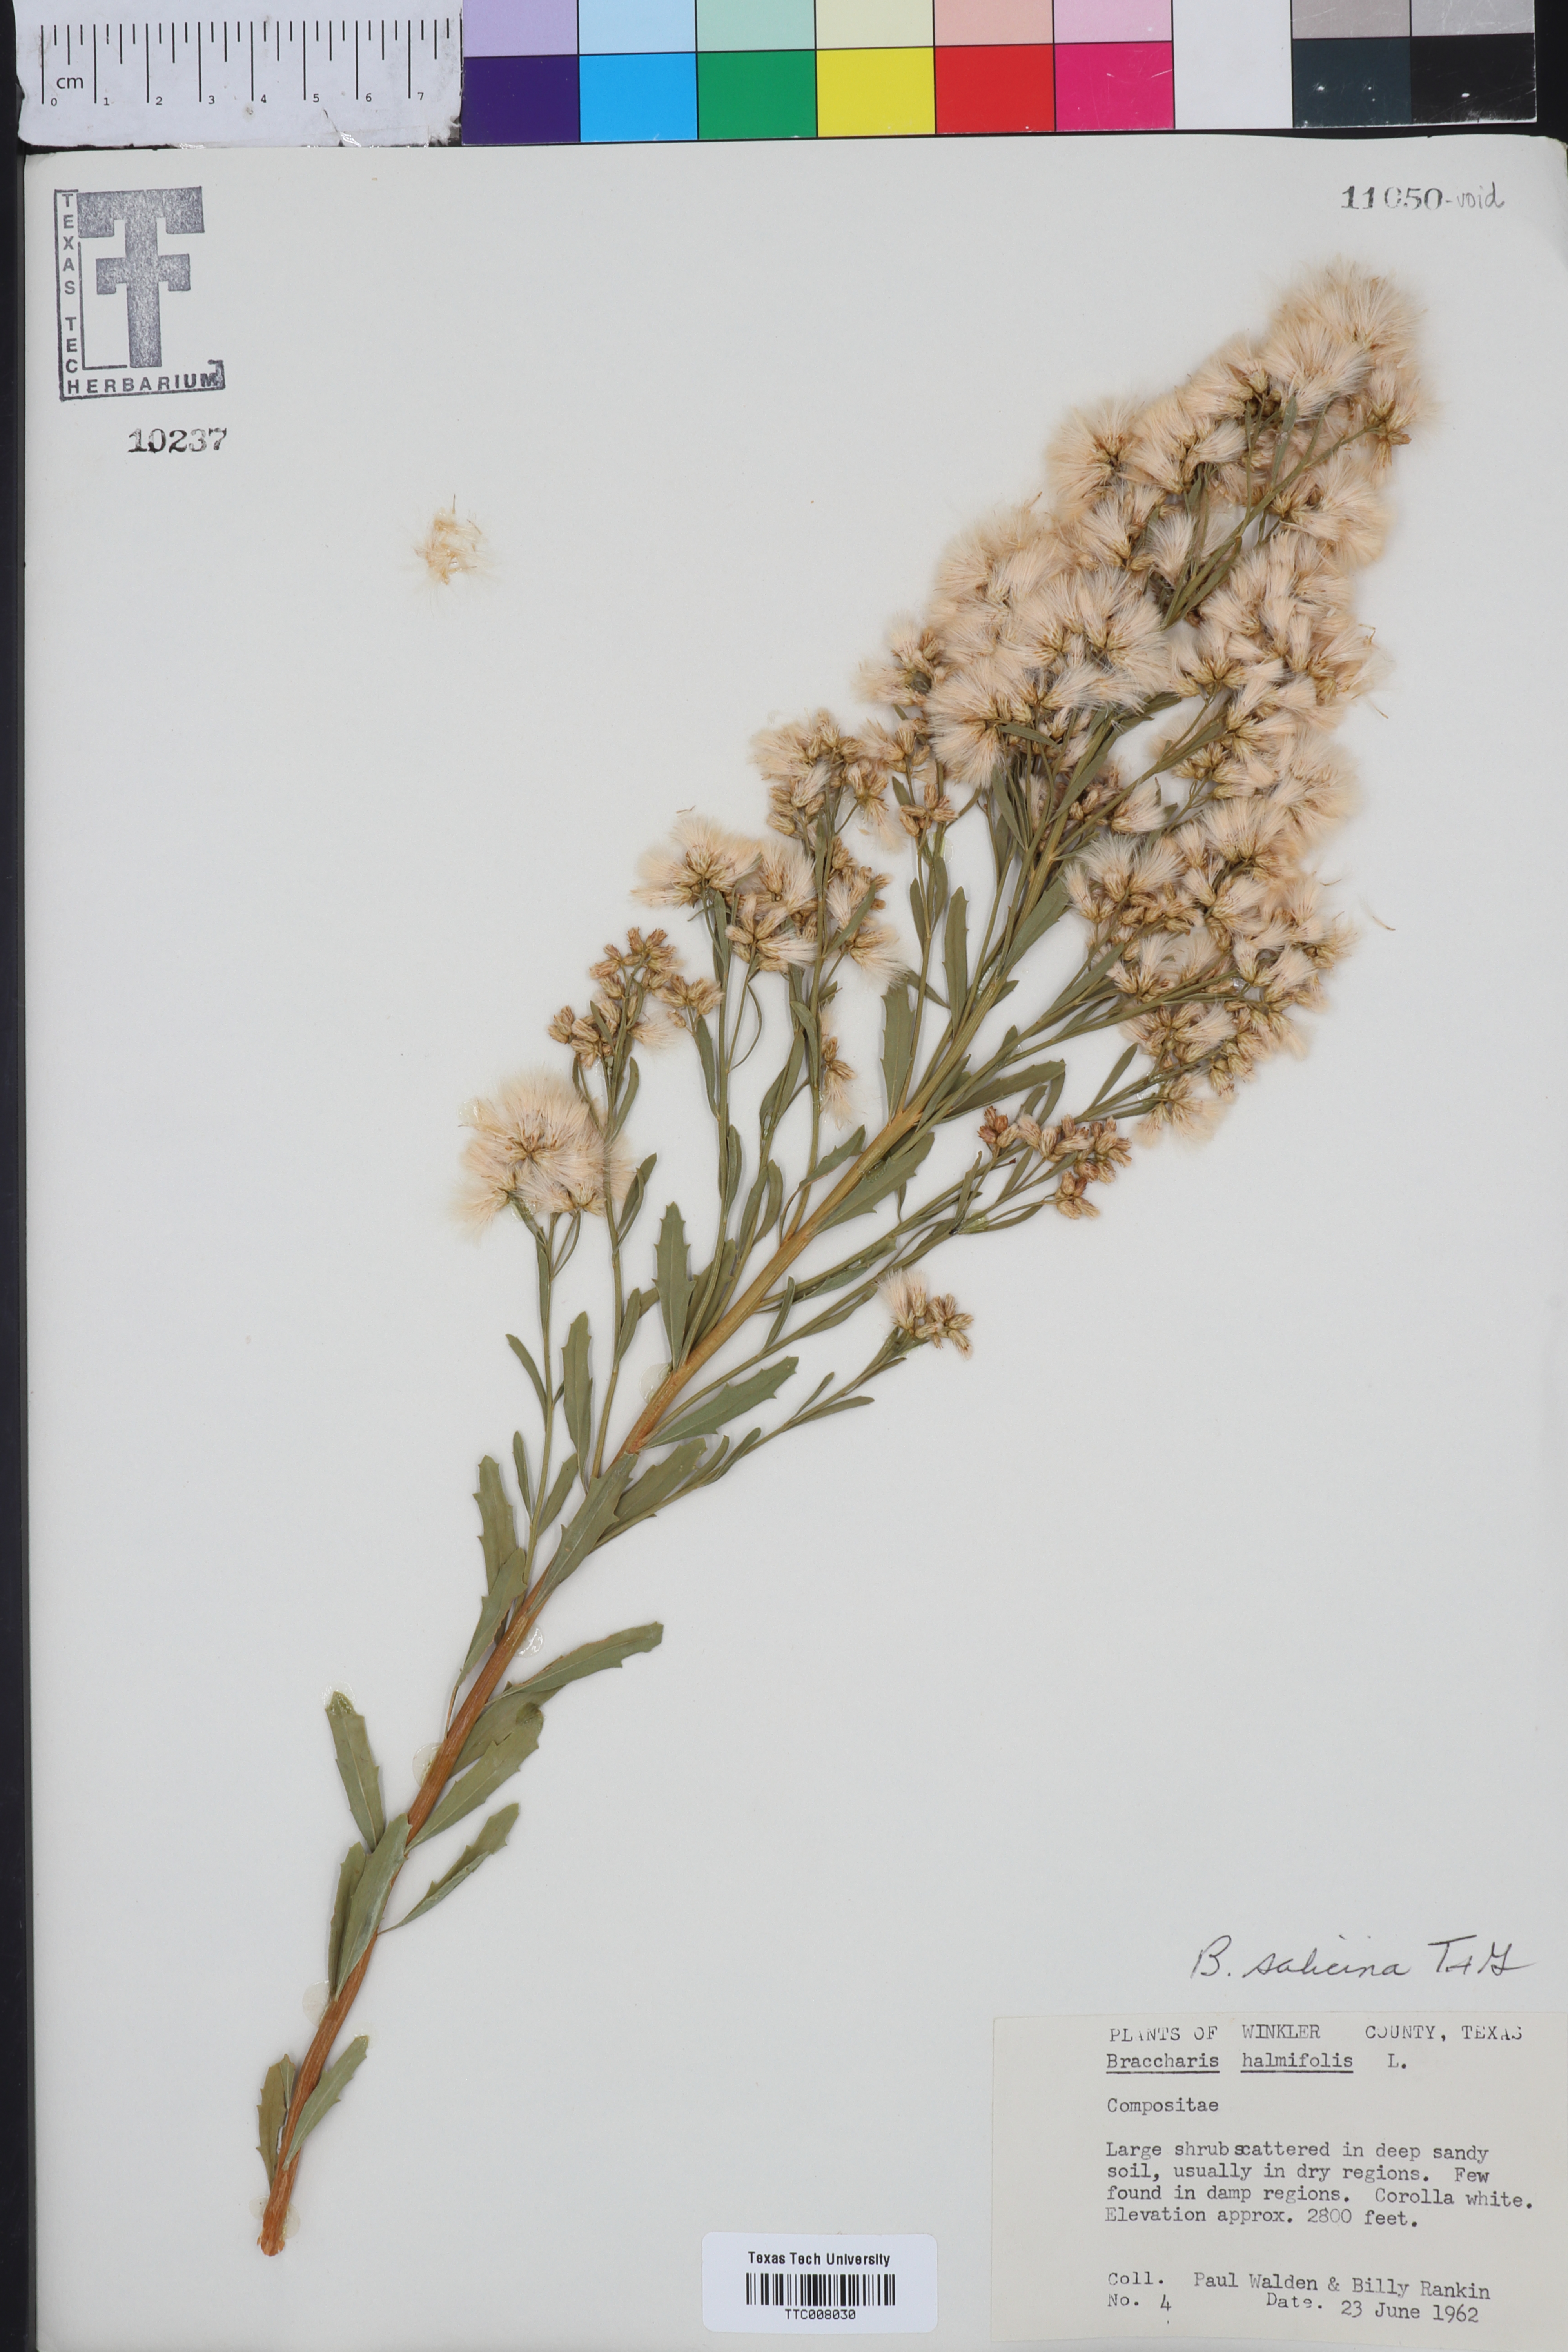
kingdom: Plantae
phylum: Tracheophyta
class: Magnoliopsida
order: Asterales
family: Asteraceae
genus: Baccharis
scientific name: Baccharis salicina
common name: Willow baccharis
